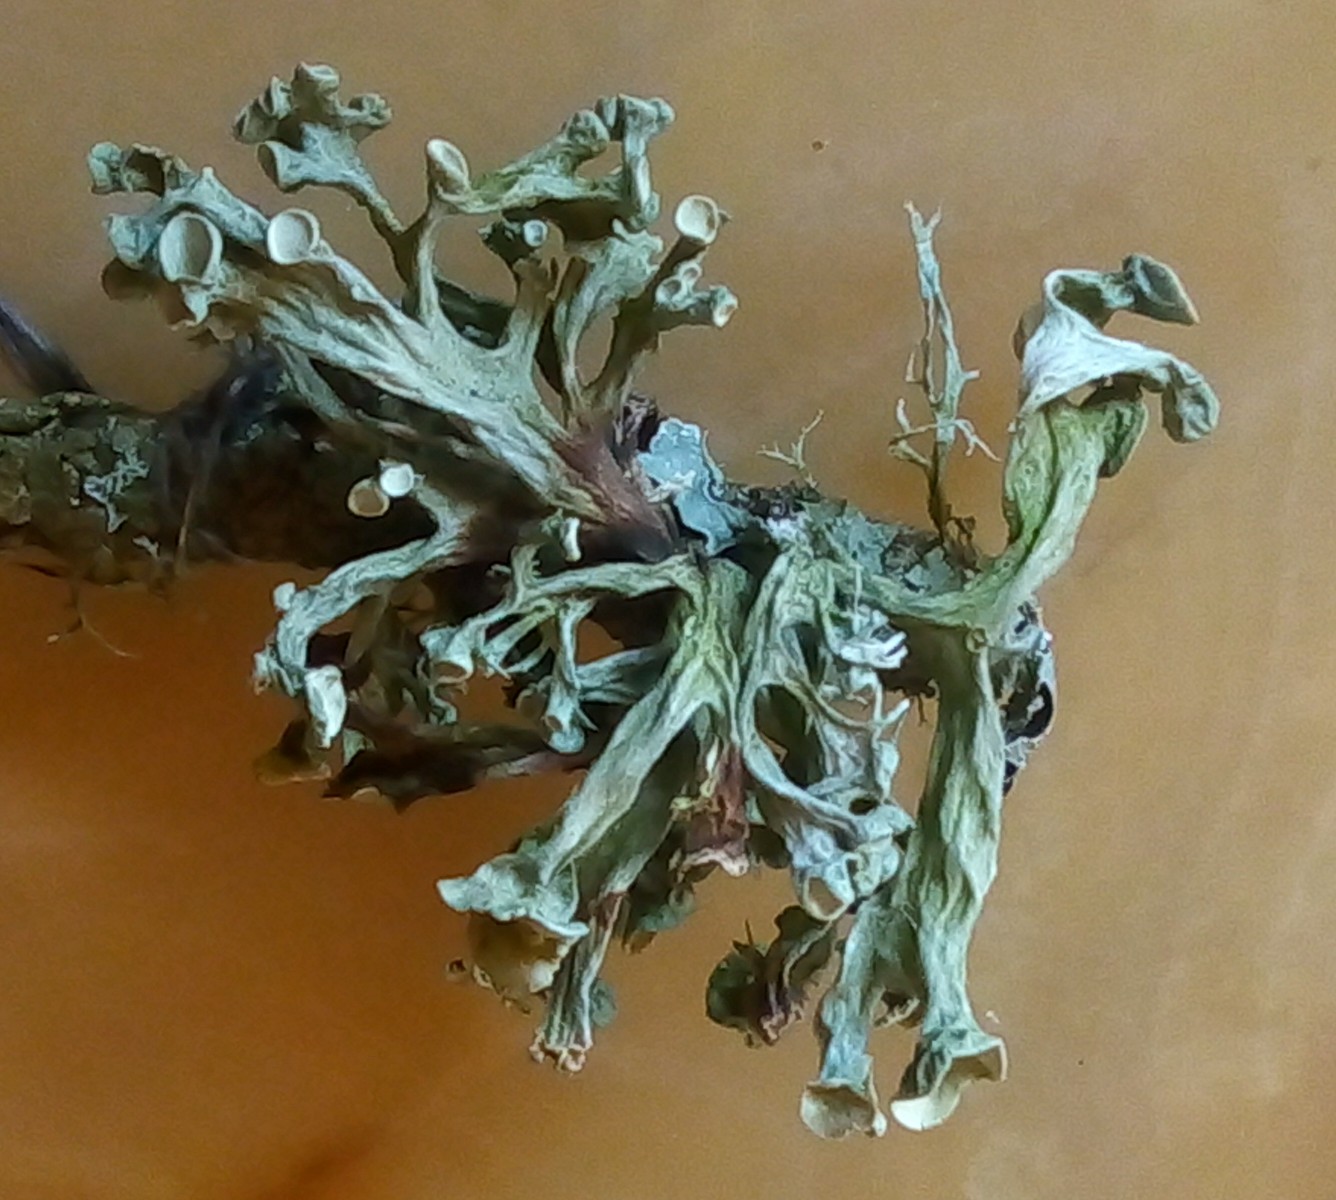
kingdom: Fungi
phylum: Ascomycota
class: Lecanoromycetes
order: Lecanorales
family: Ramalinaceae
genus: Ramalina
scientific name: Ramalina fastigiata
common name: tue-grenlav
